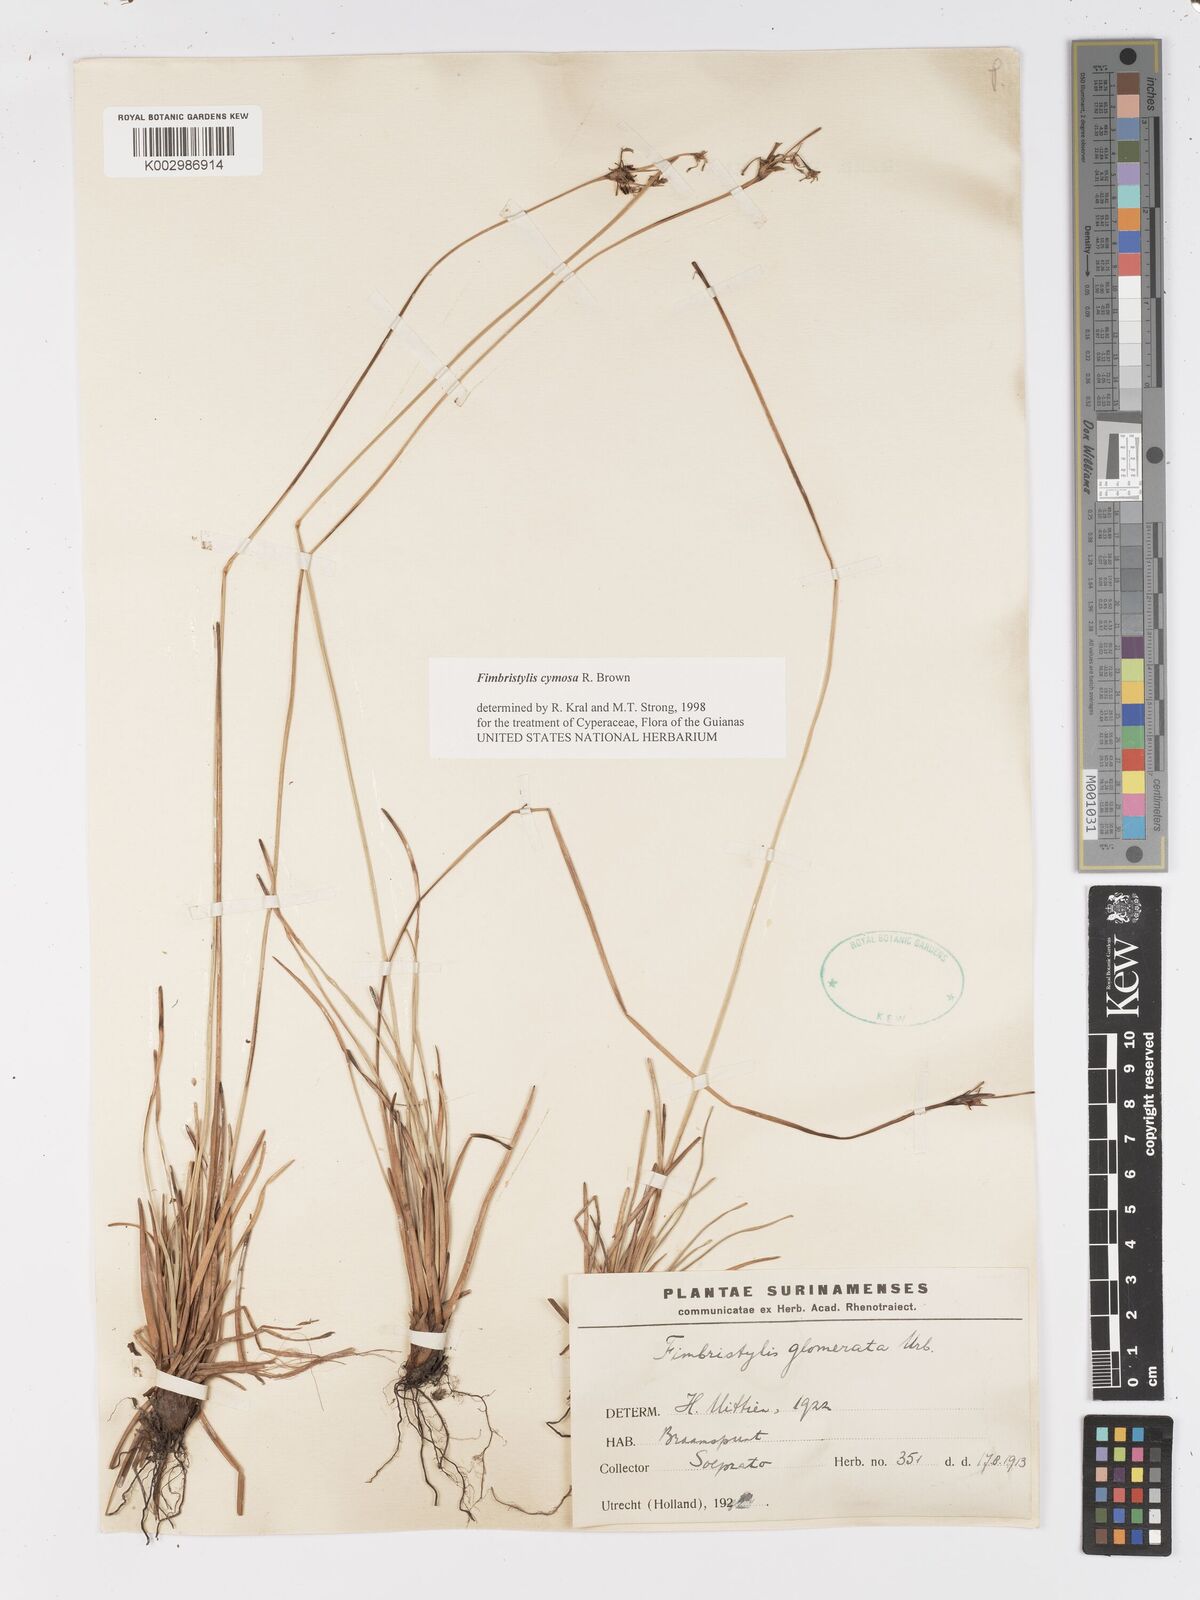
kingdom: Plantae
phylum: Tracheophyta
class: Liliopsida
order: Poales
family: Cyperaceae
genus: Fimbristylis
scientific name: Fimbristylis cymosa
